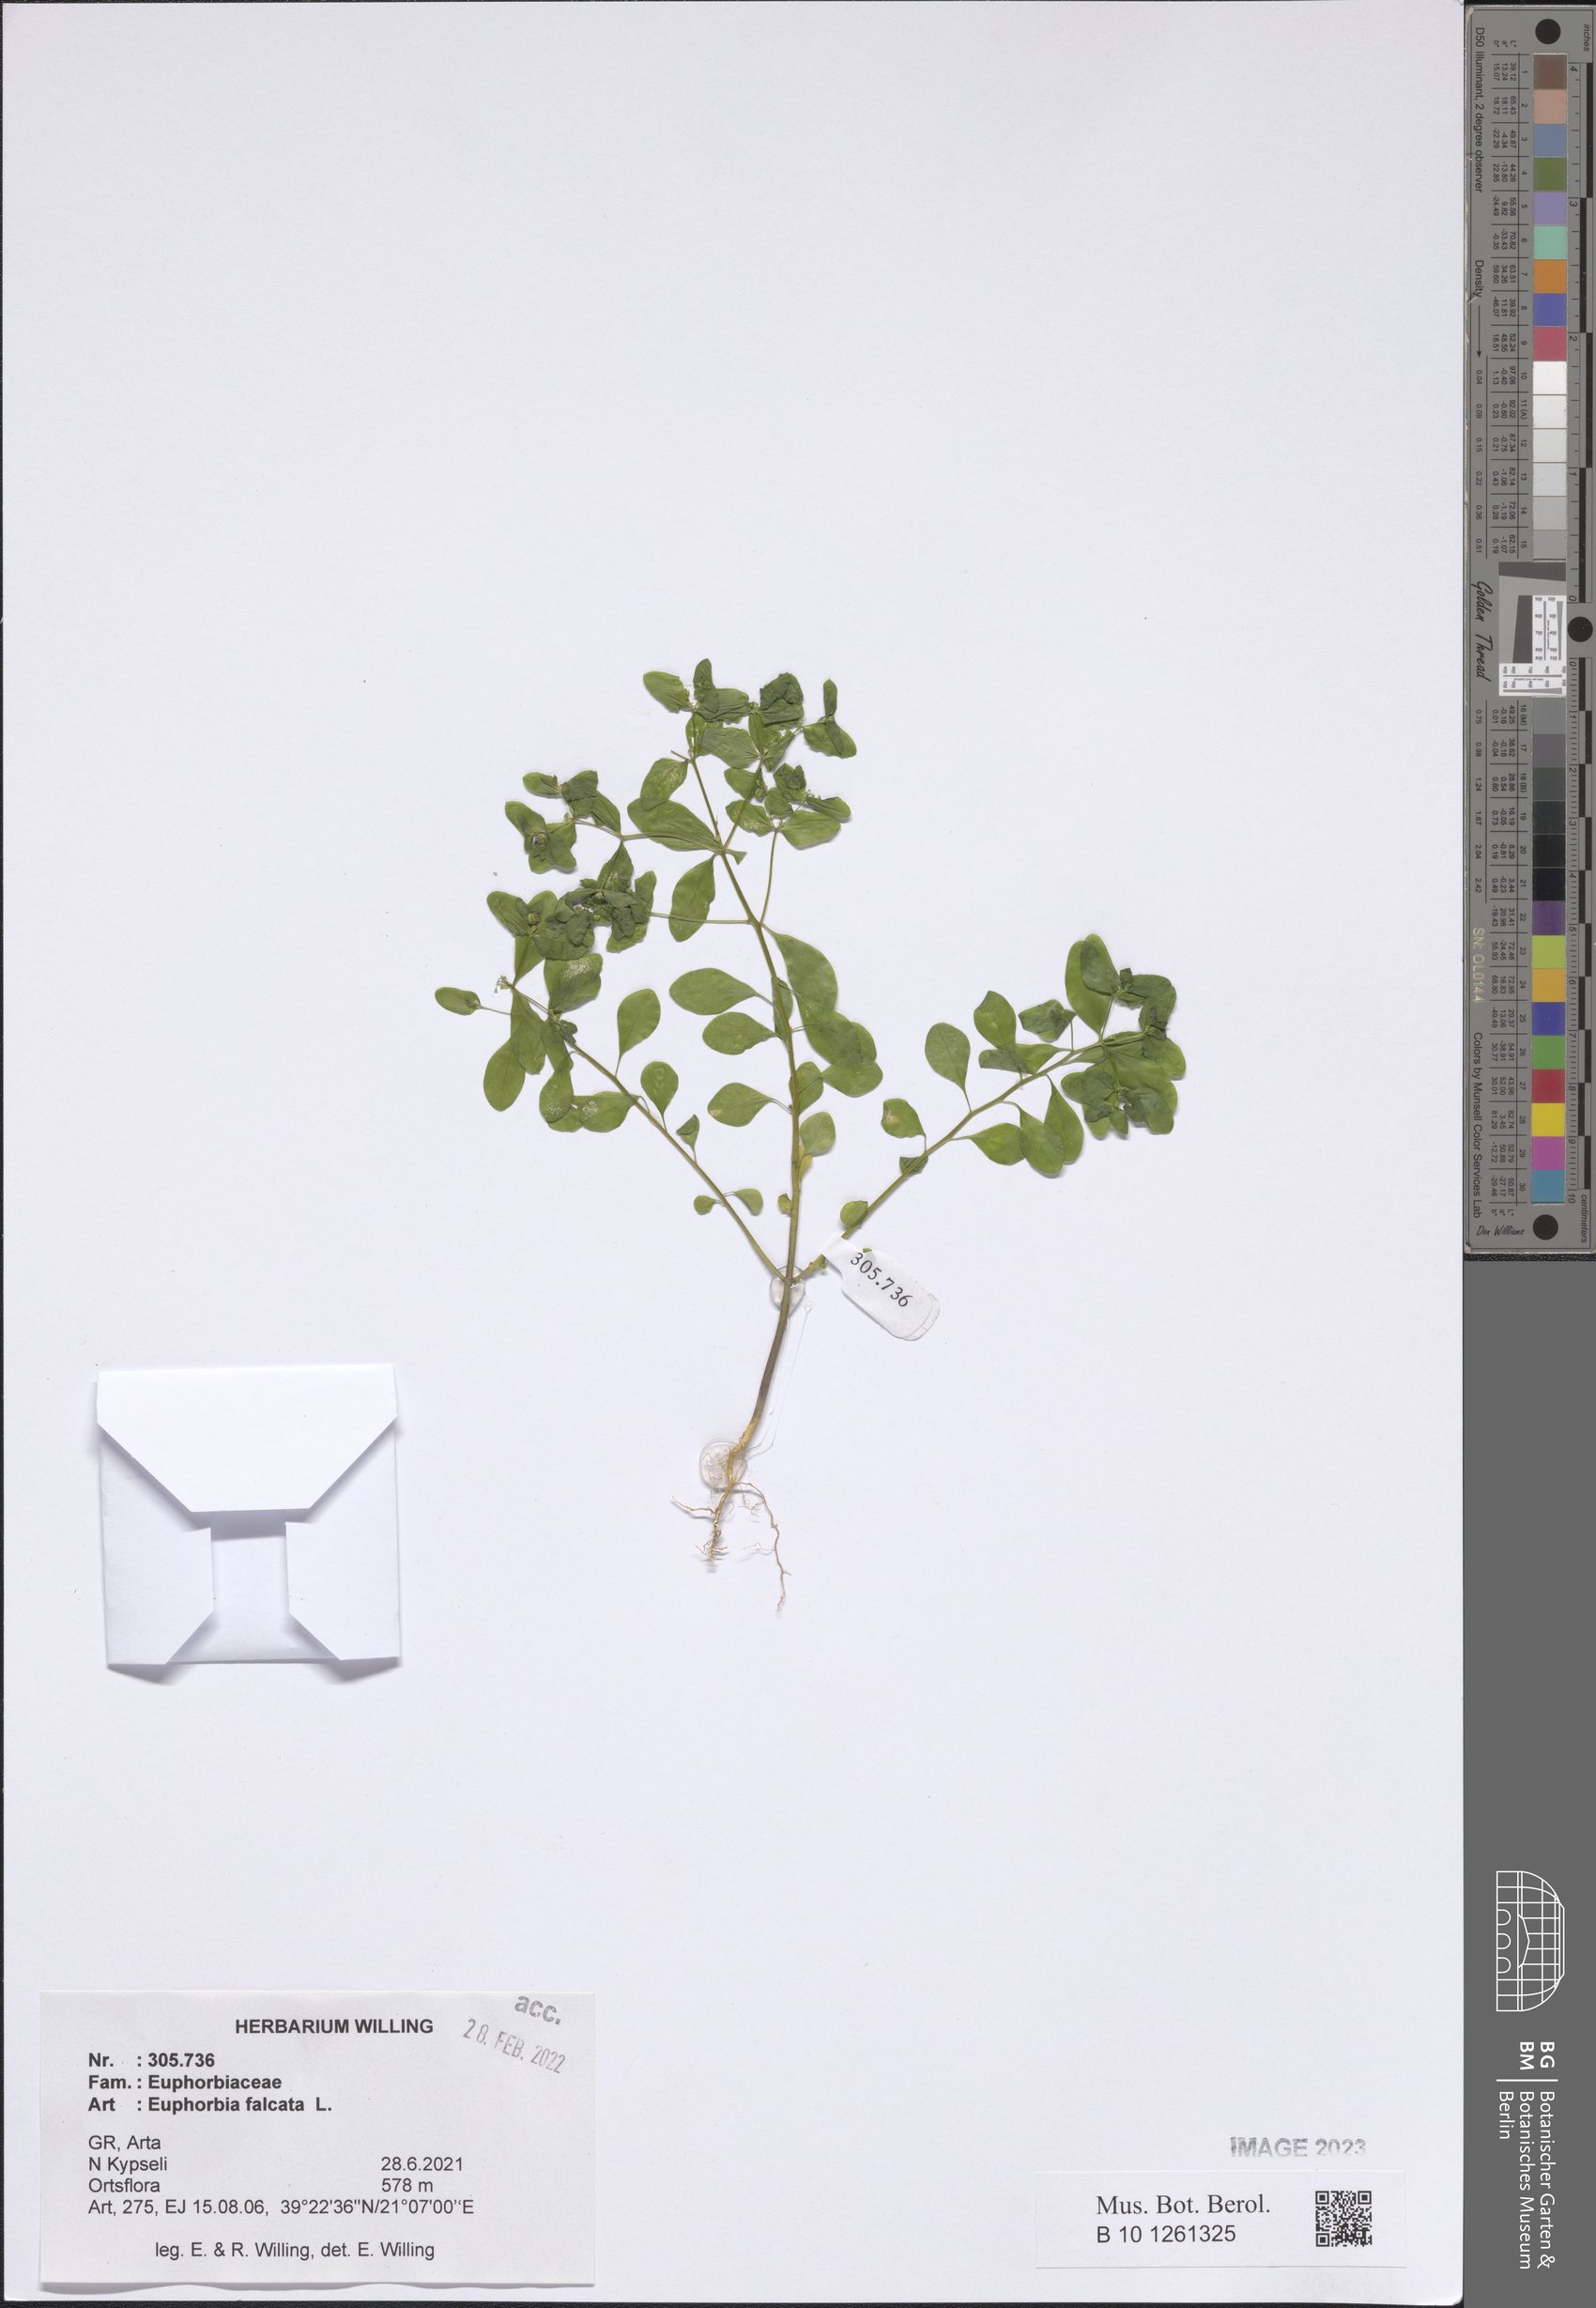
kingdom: Plantae
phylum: Tracheophyta
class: Magnoliopsida
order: Malpighiales
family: Euphorbiaceae
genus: Euphorbia
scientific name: Euphorbia falcata
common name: Sickle spurge
